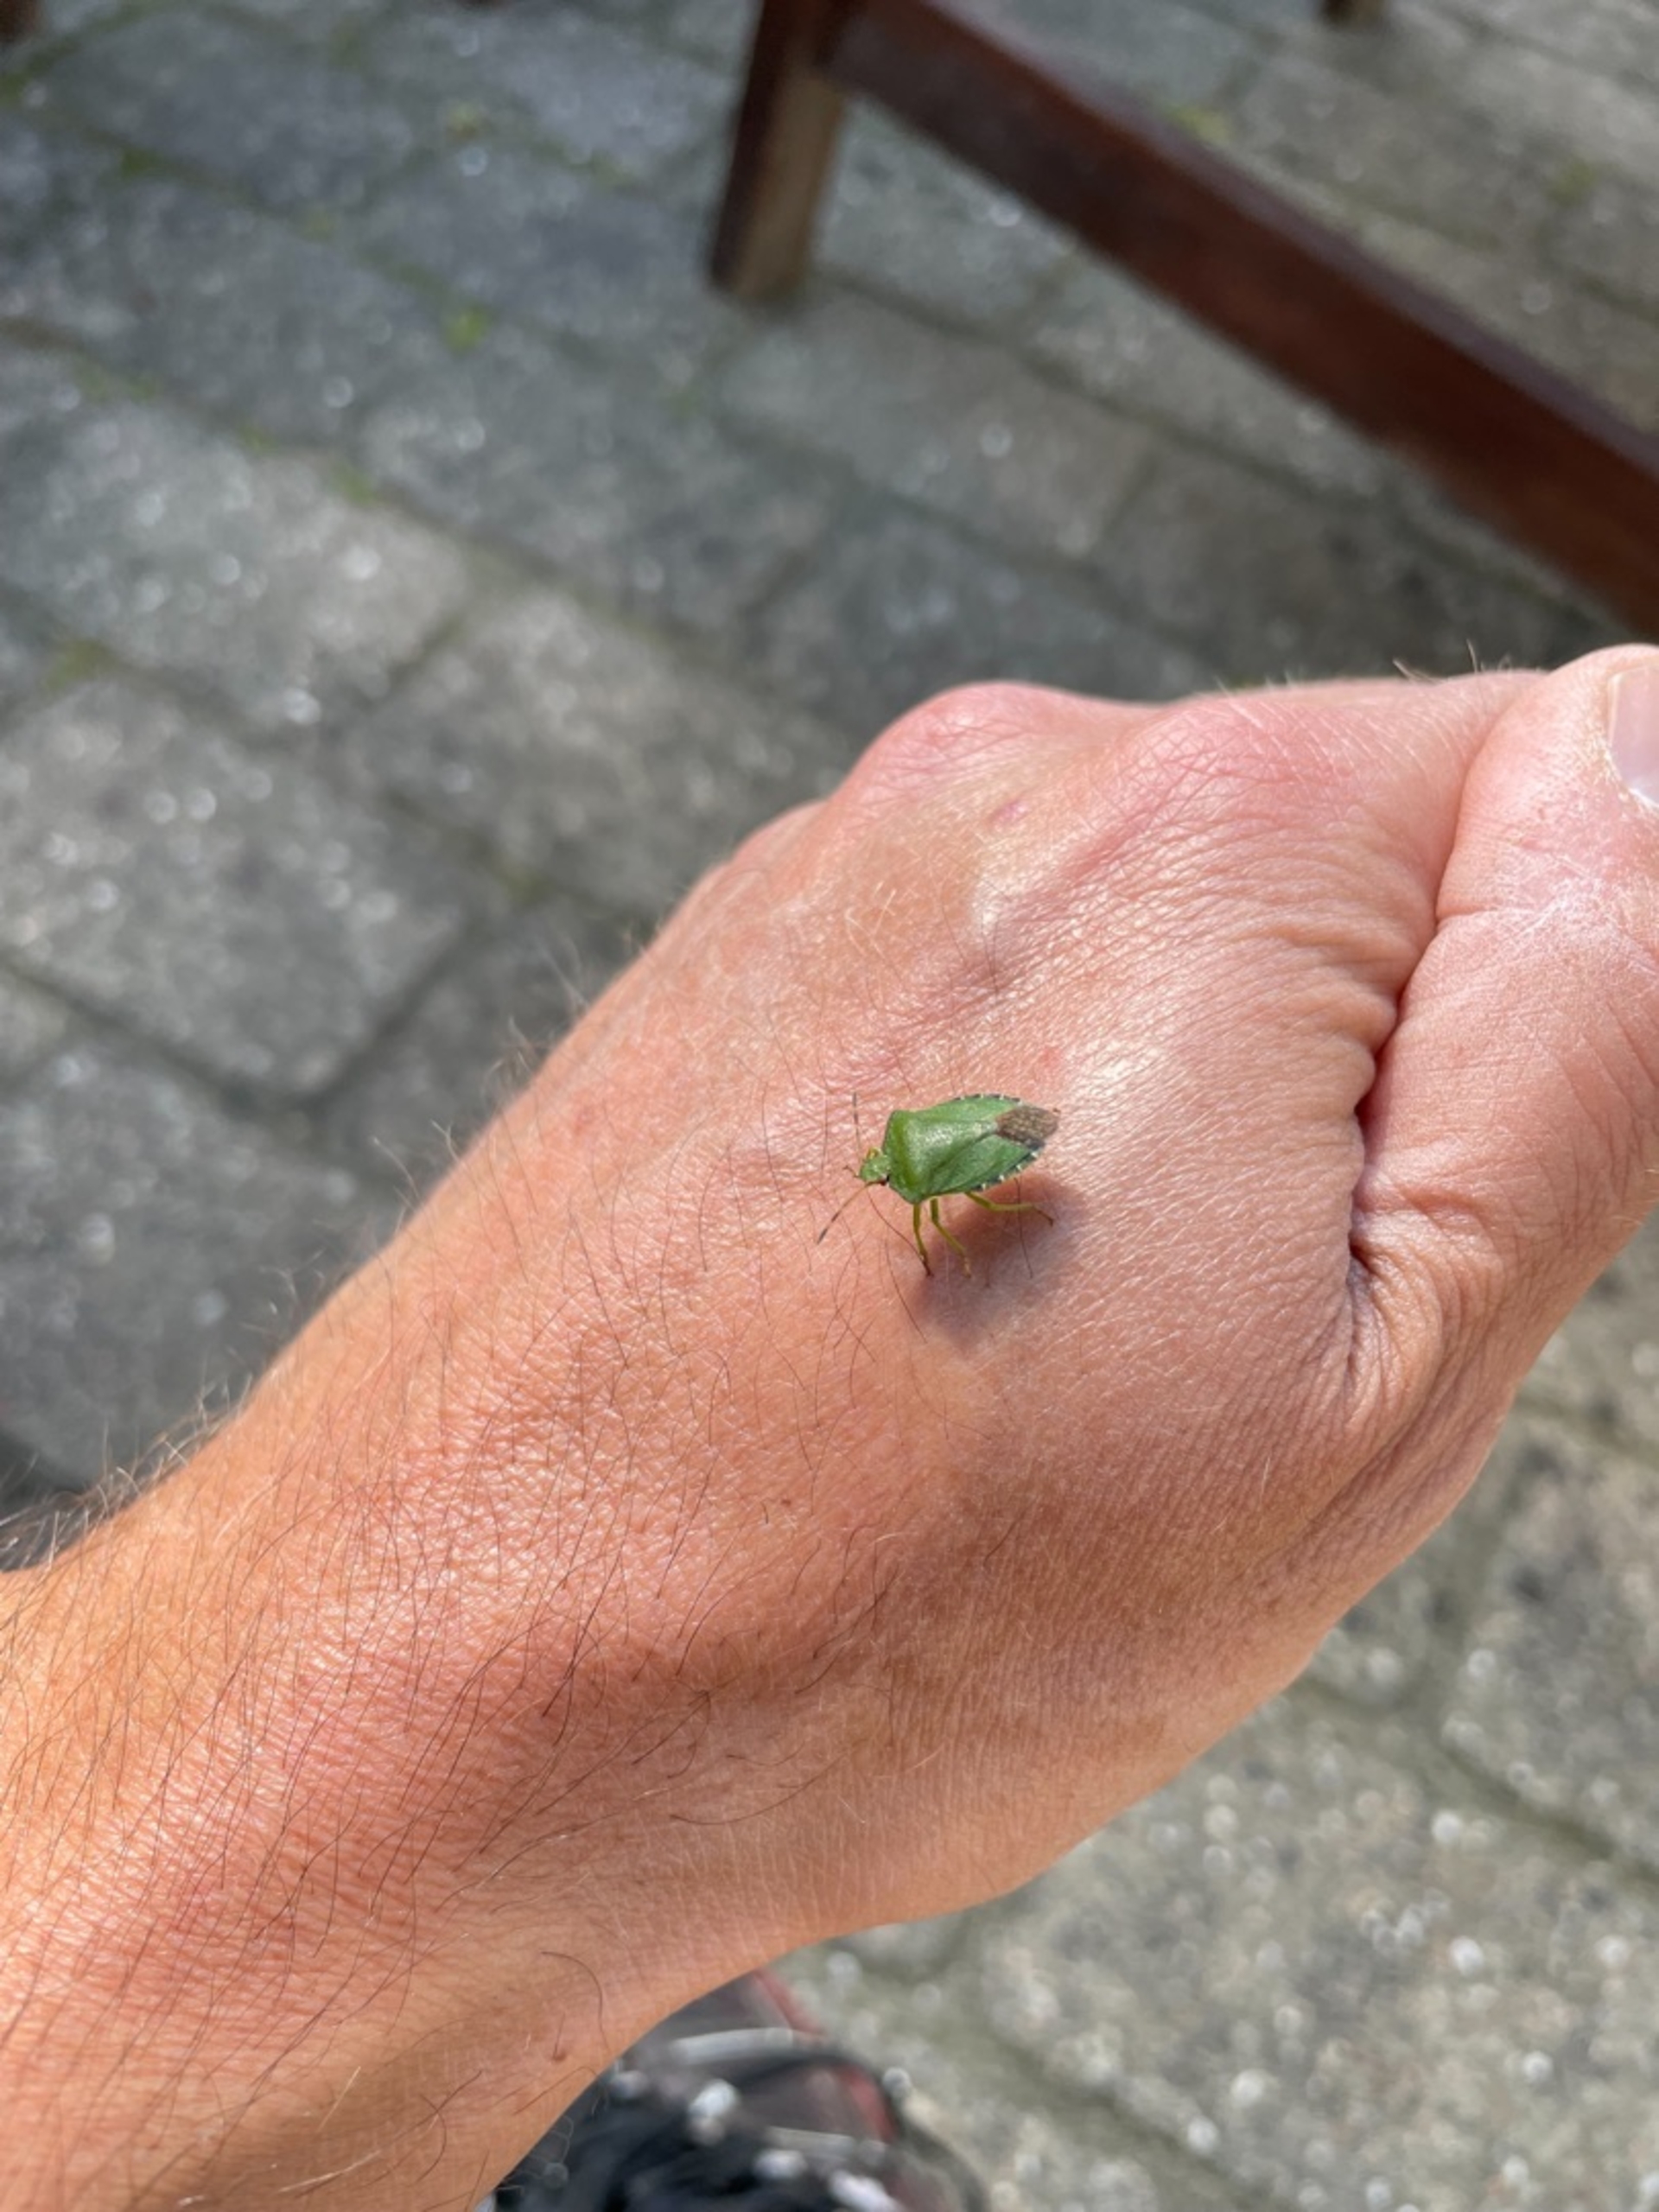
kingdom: Animalia
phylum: Arthropoda
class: Insecta
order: Hemiptera
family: Pentatomidae
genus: Palomena
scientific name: Palomena prasina
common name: Grøn bredtæge
